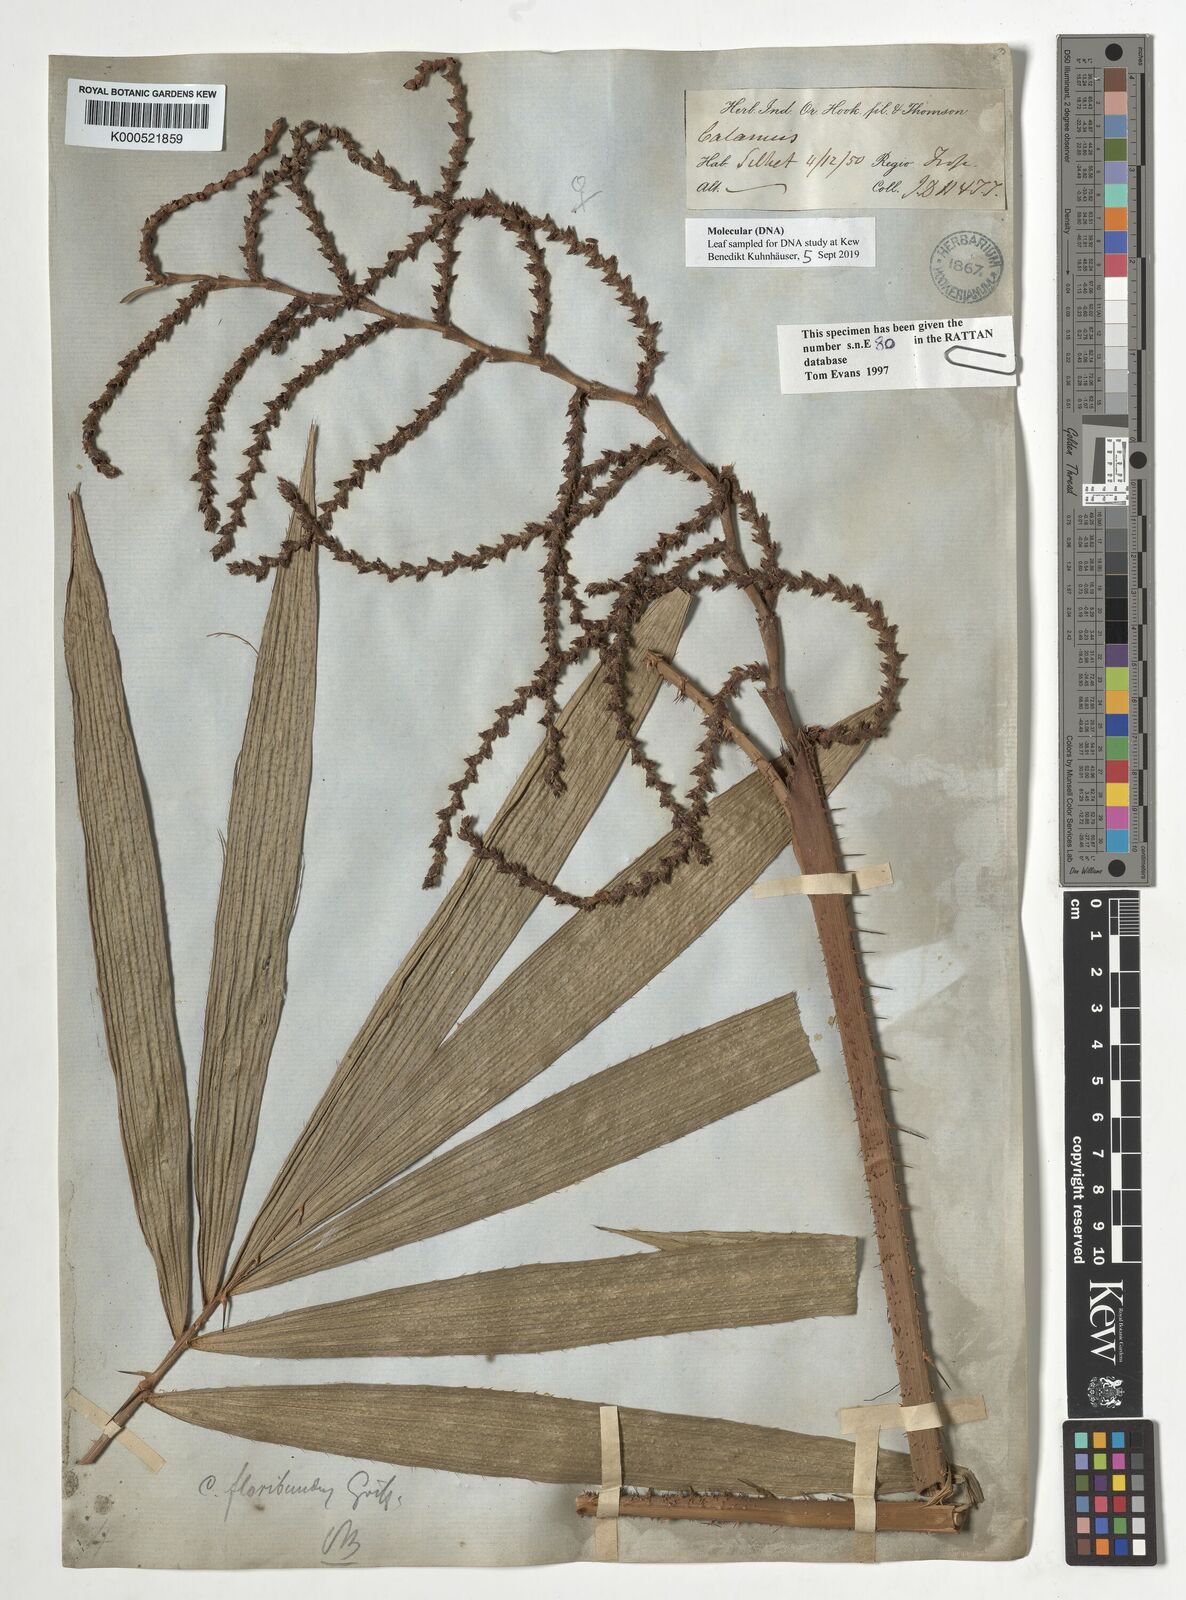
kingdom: Plantae
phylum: Tracheophyta
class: Liliopsida
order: Arecales
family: Arecaceae
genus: Calamus
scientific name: Calamus floribundus
